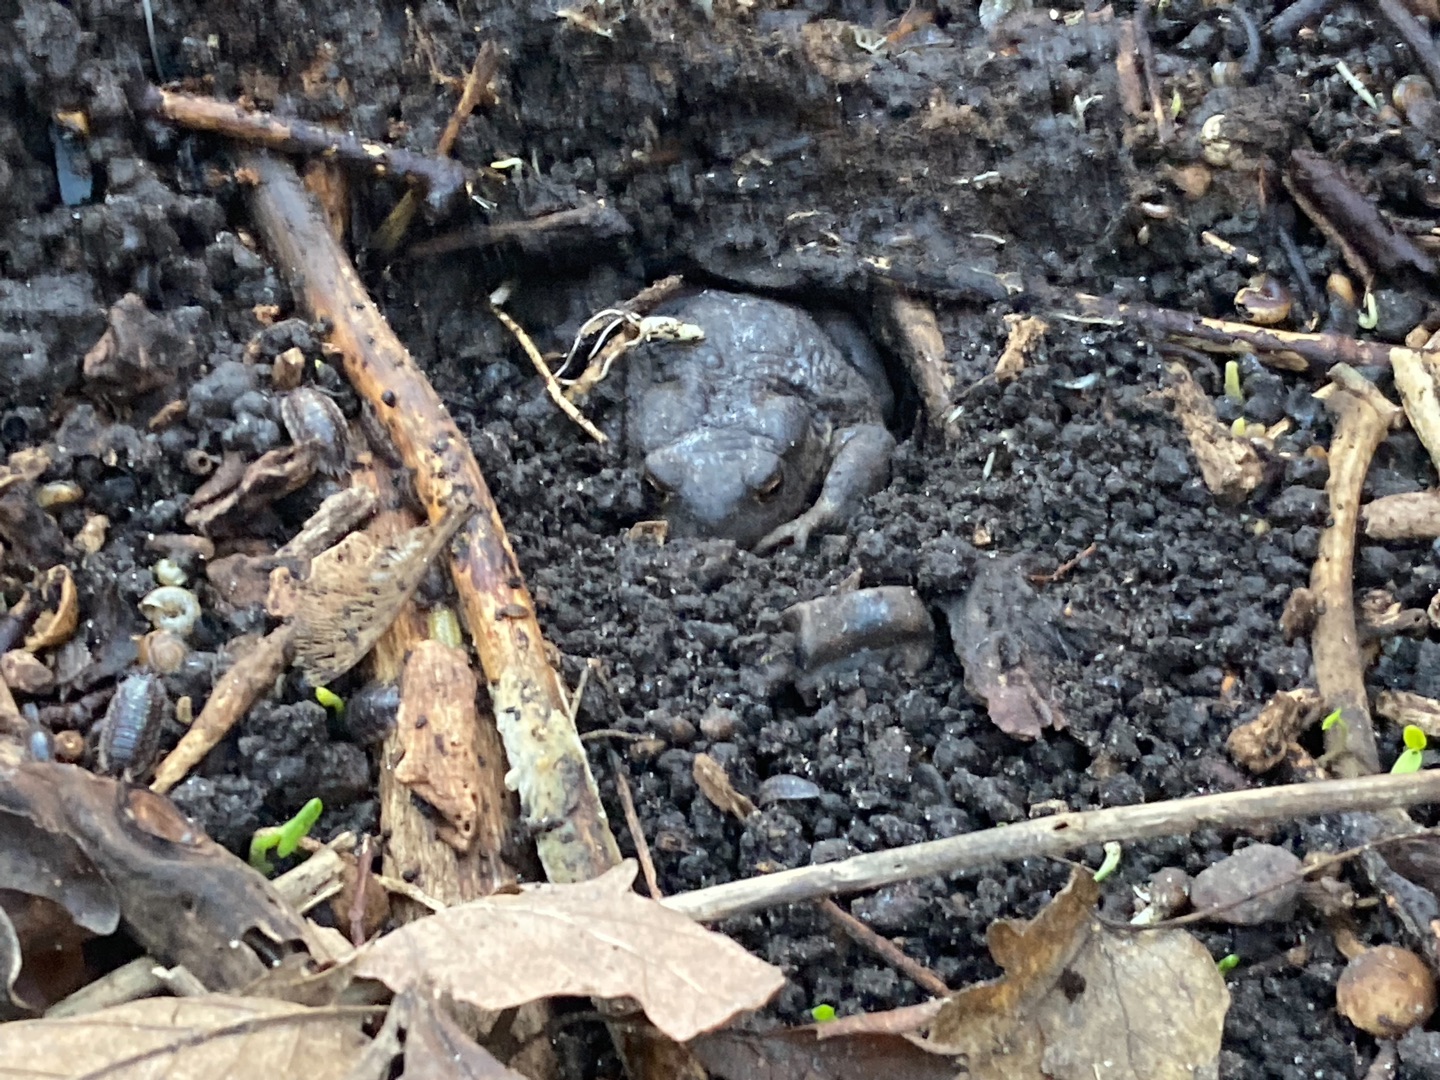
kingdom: Animalia
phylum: Chordata
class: Amphibia
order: Anura
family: Bufonidae
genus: Bufo
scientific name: Bufo bufo
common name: Skrubtudse
